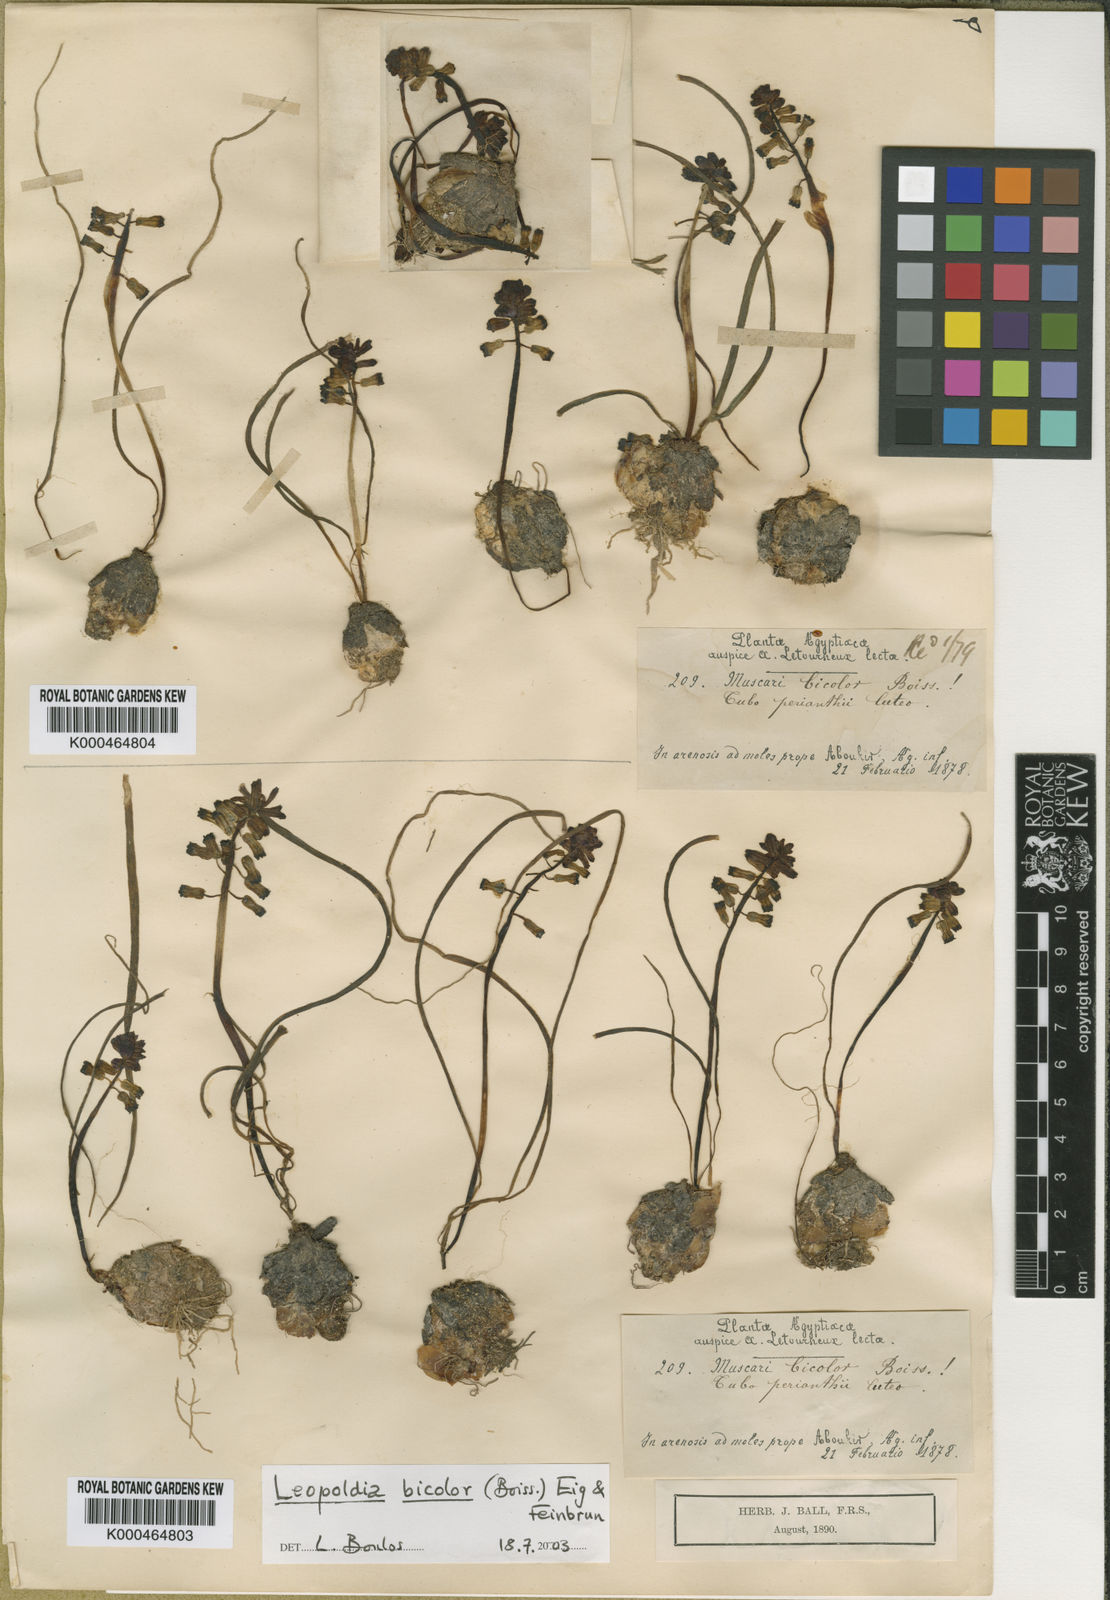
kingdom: Plantae
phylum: Tracheophyta
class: Liliopsida
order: Asparagales
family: Asparagaceae
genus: Muscari
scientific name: Muscari bicolor
